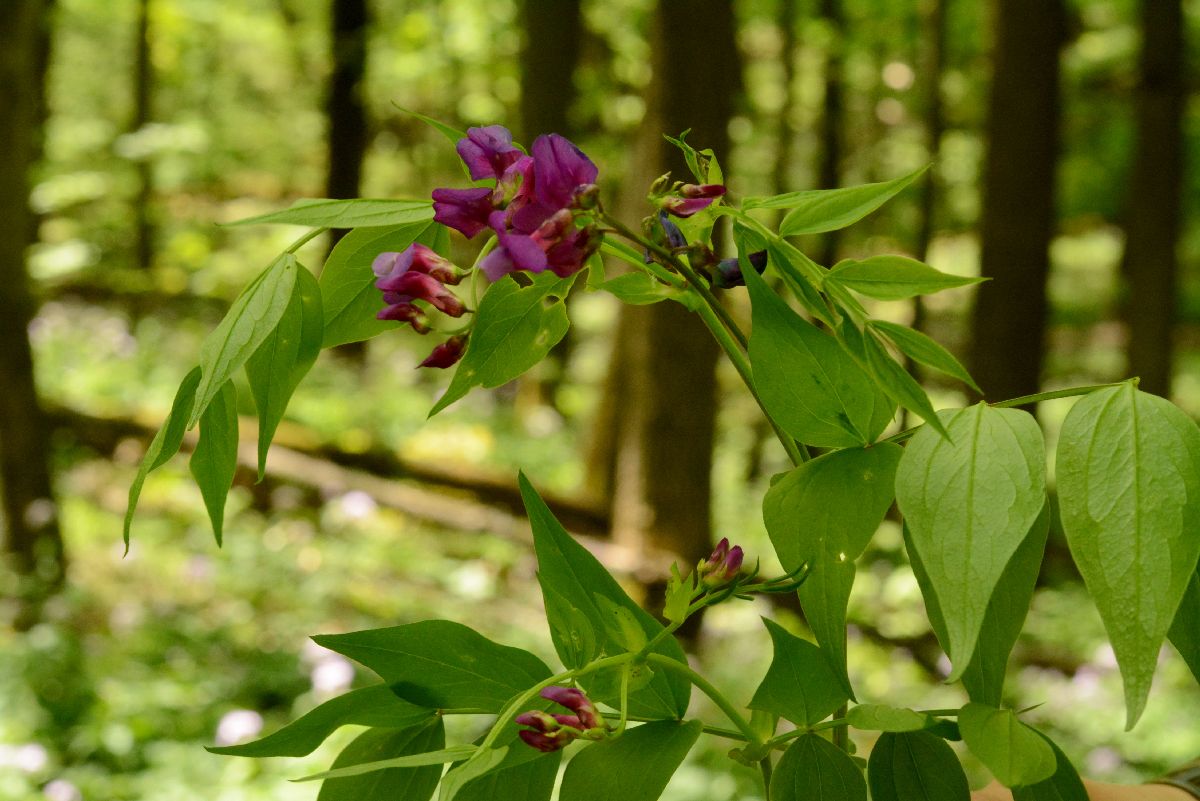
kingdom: Plantae
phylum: Tracheophyta
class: Magnoliopsida
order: Fabales
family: Fabaceae
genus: Lathyrus
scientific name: Lathyrus vernus
